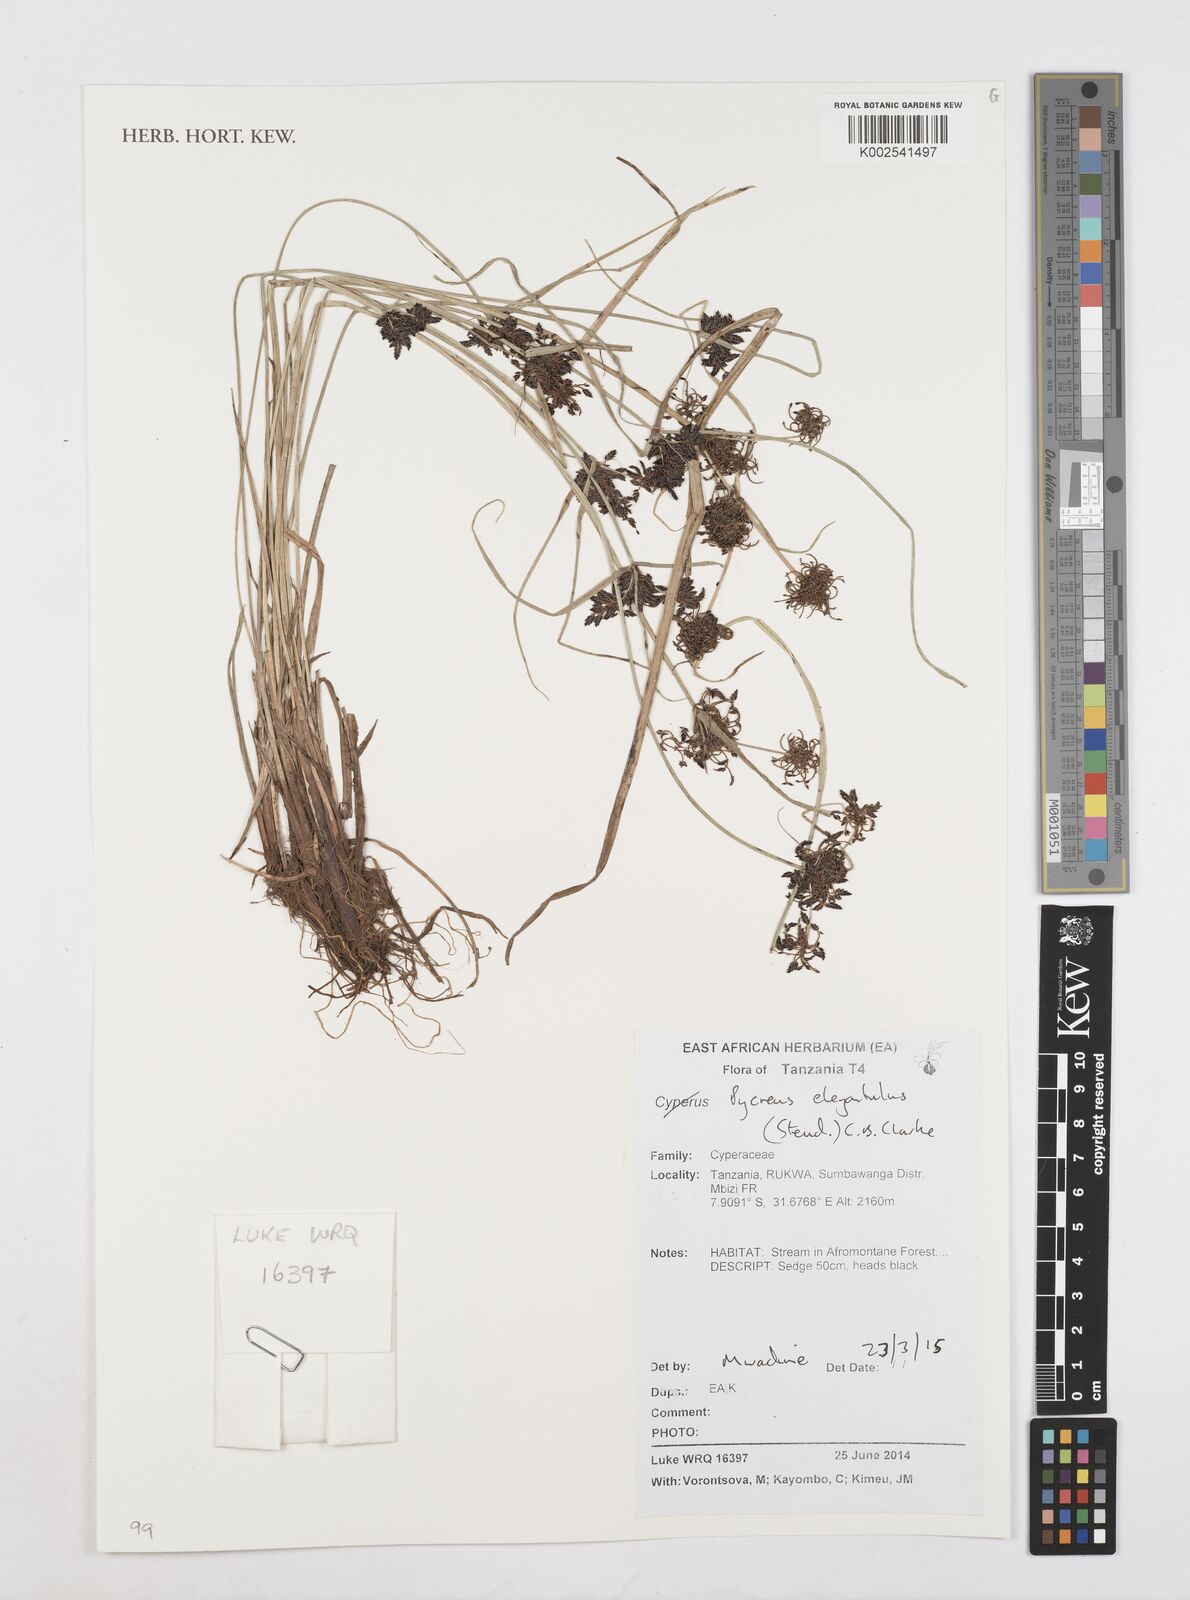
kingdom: Plantae
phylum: Tracheophyta
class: Liliopsida
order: Poales
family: Cyperaceae
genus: Cyperus
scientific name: Cyperus elegantulus
